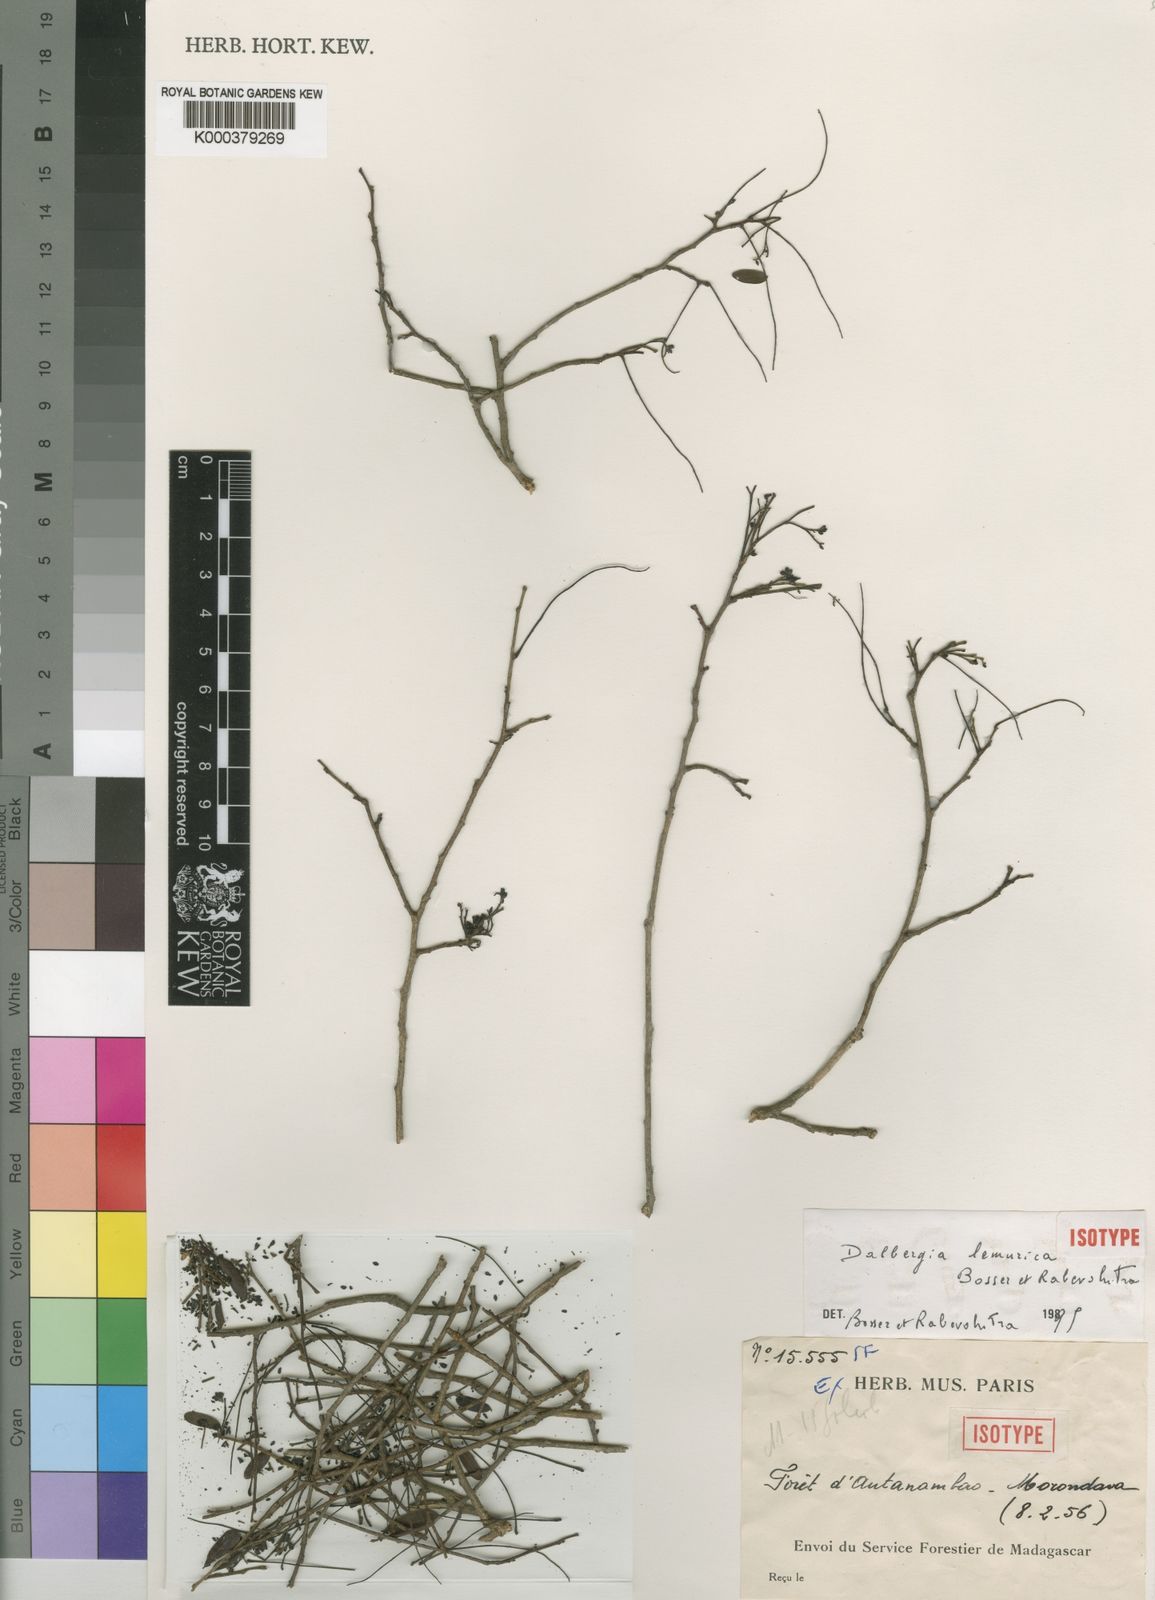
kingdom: Plantae
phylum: Tracheophyta
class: Magnoliopsida
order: Fabales
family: Fabaceae
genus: Dalbergia
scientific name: Dalbergia lemurica
